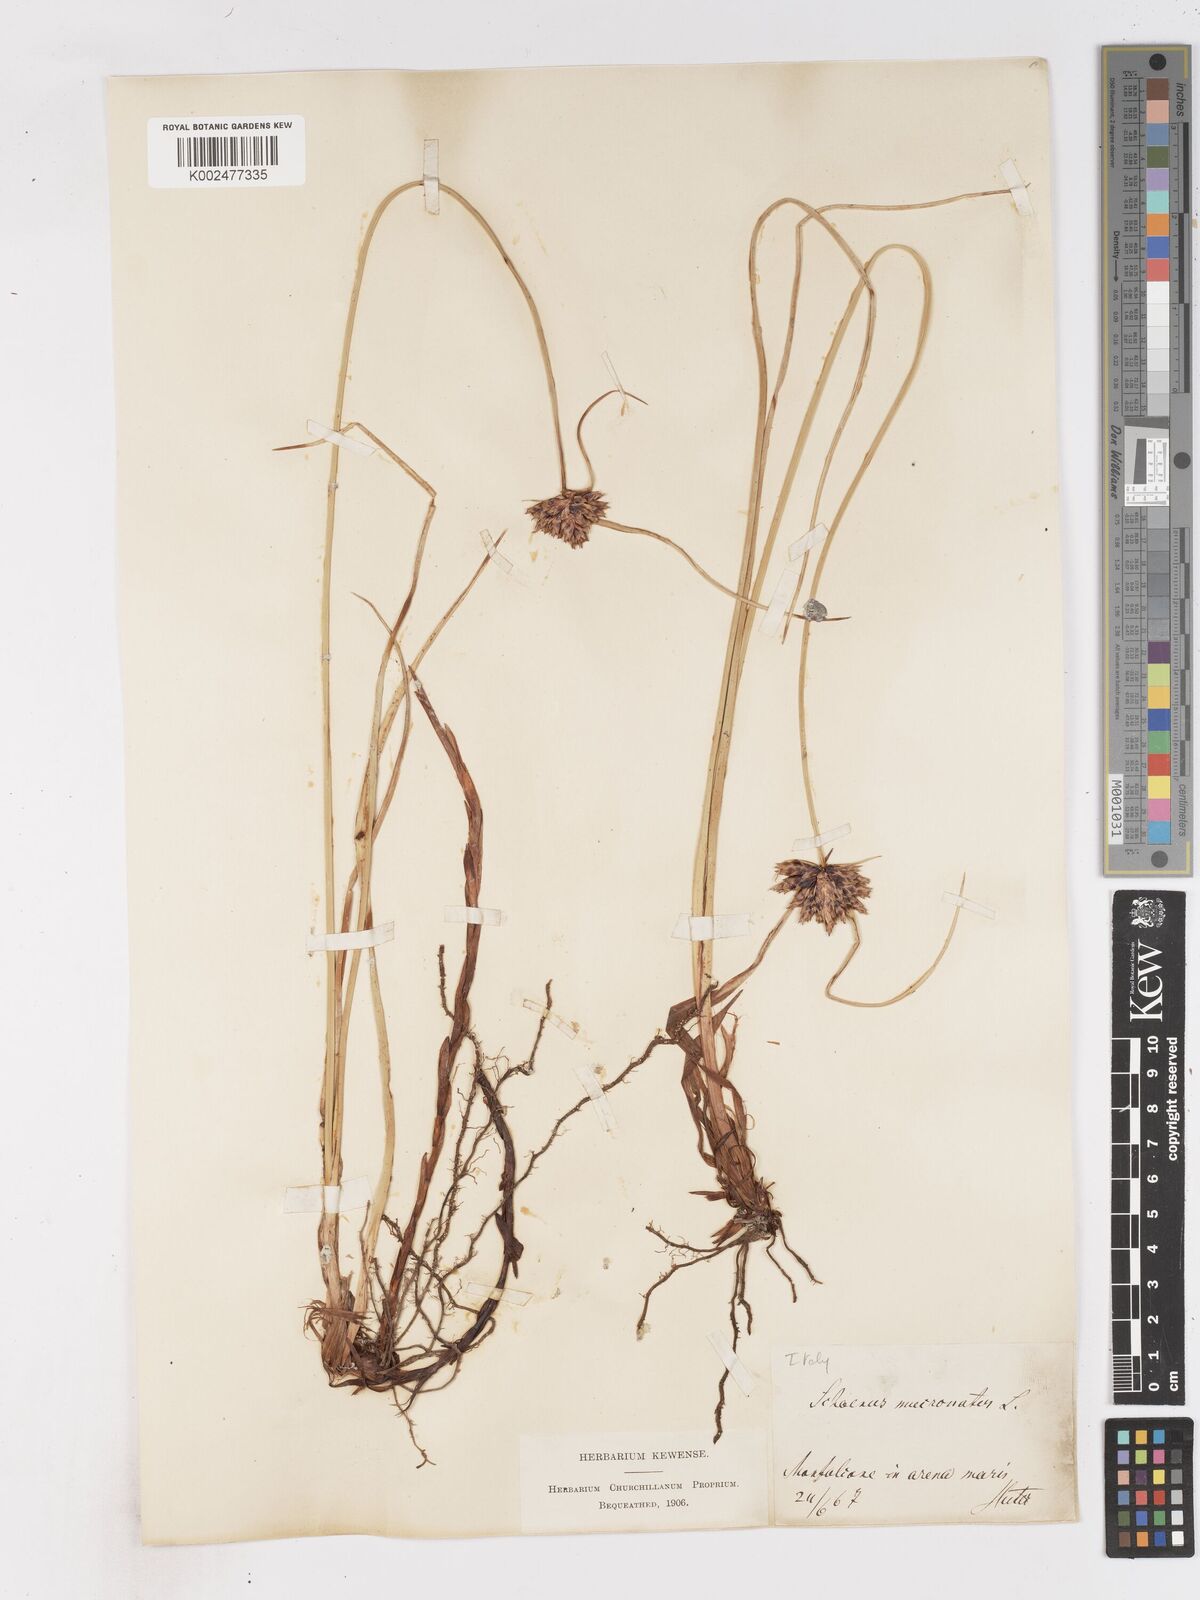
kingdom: Plantae
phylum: Tracheophyta
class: Liliopsida
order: Poales
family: Cyperaceae
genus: Cyperus
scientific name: Cyperus capitatus
